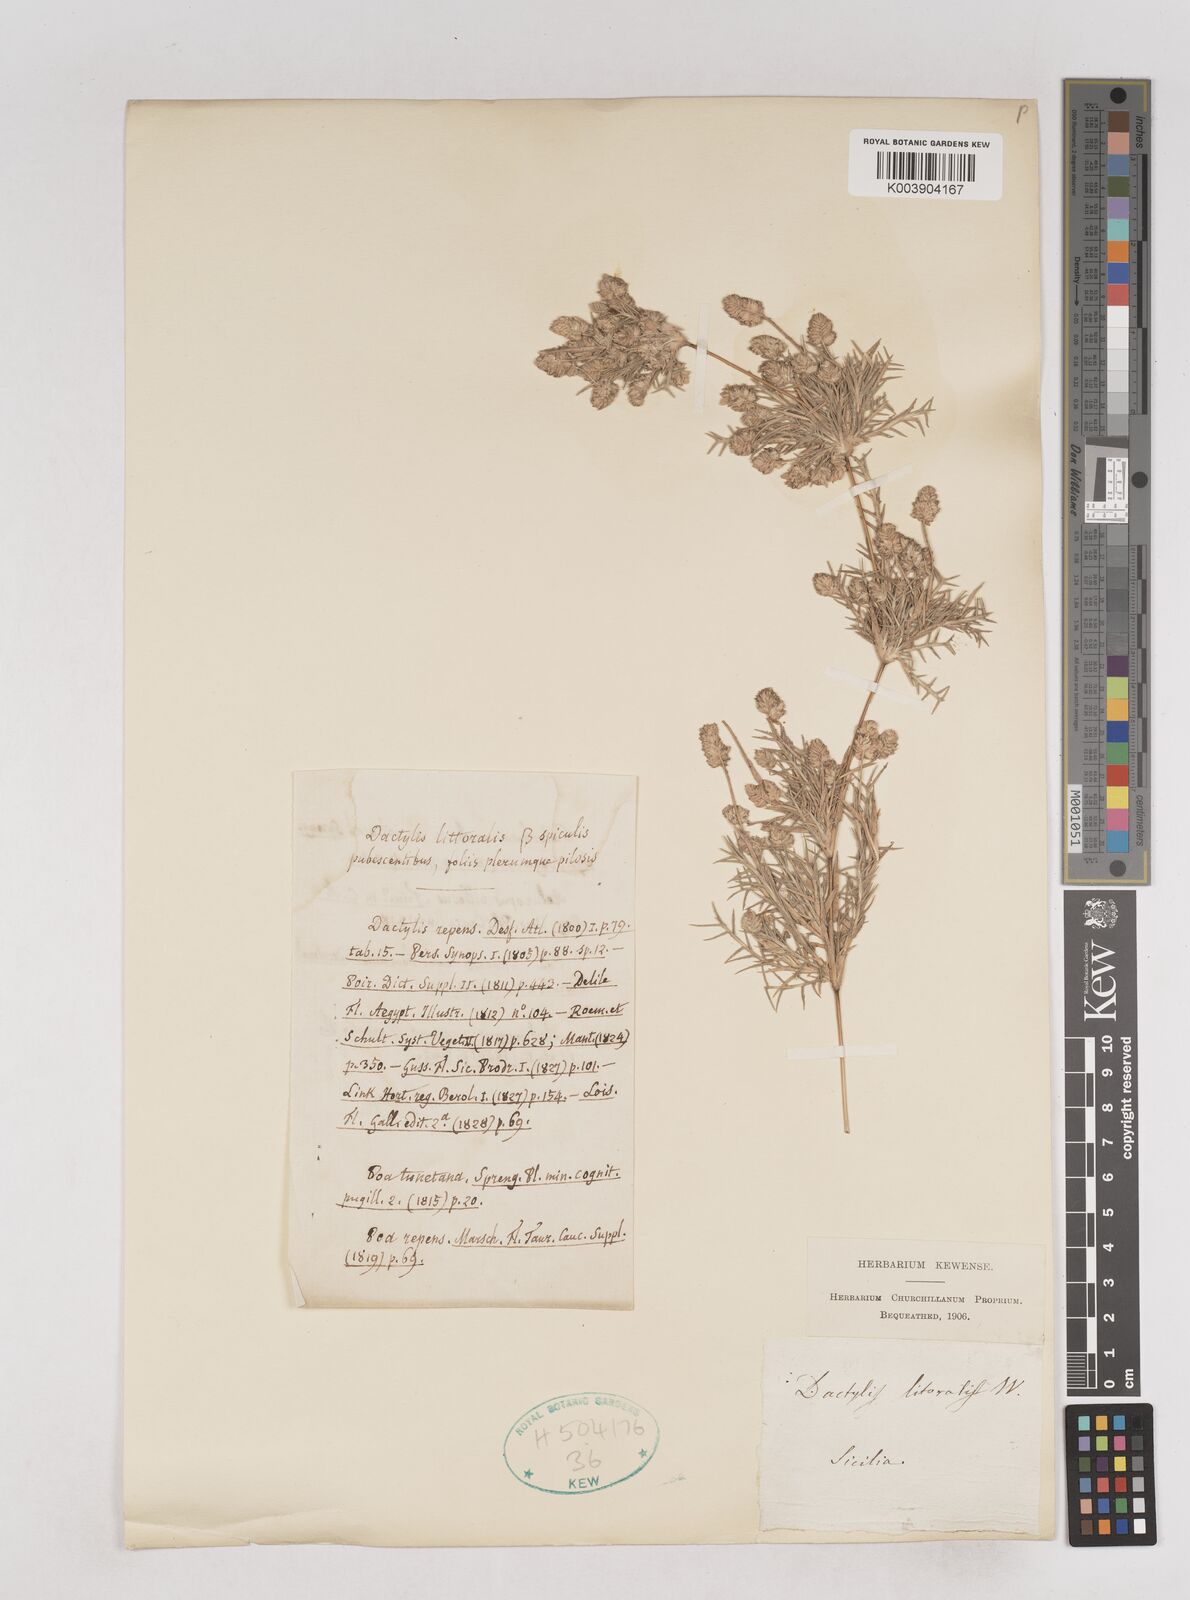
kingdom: Plantae
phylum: Tracheophyta
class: Liliopsida
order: Poales
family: Poaceae
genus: Aeluropus
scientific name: Aeluropus littoralis
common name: Indian walnut
